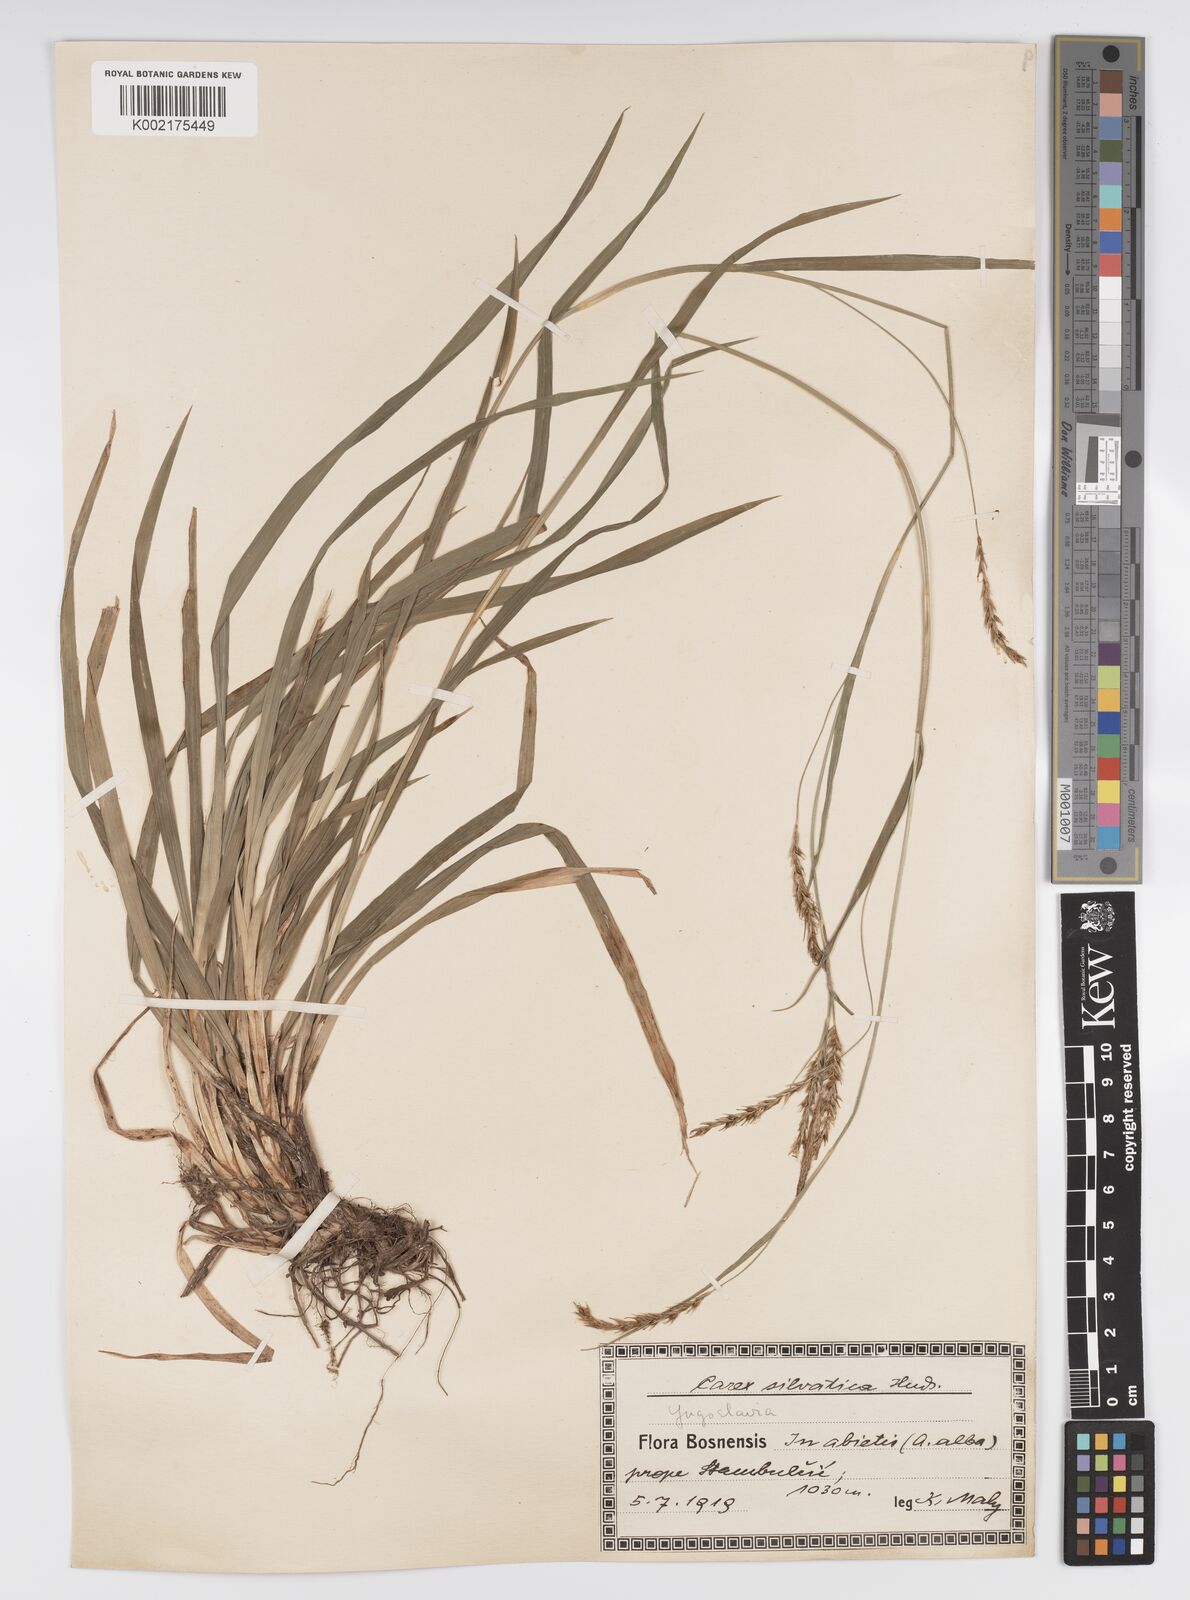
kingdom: Plantae
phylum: Tracheophyta
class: Liliopsida
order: Poales
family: Cyperaceae
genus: Carex
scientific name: Carex sylvatica
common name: Wood-sedge
